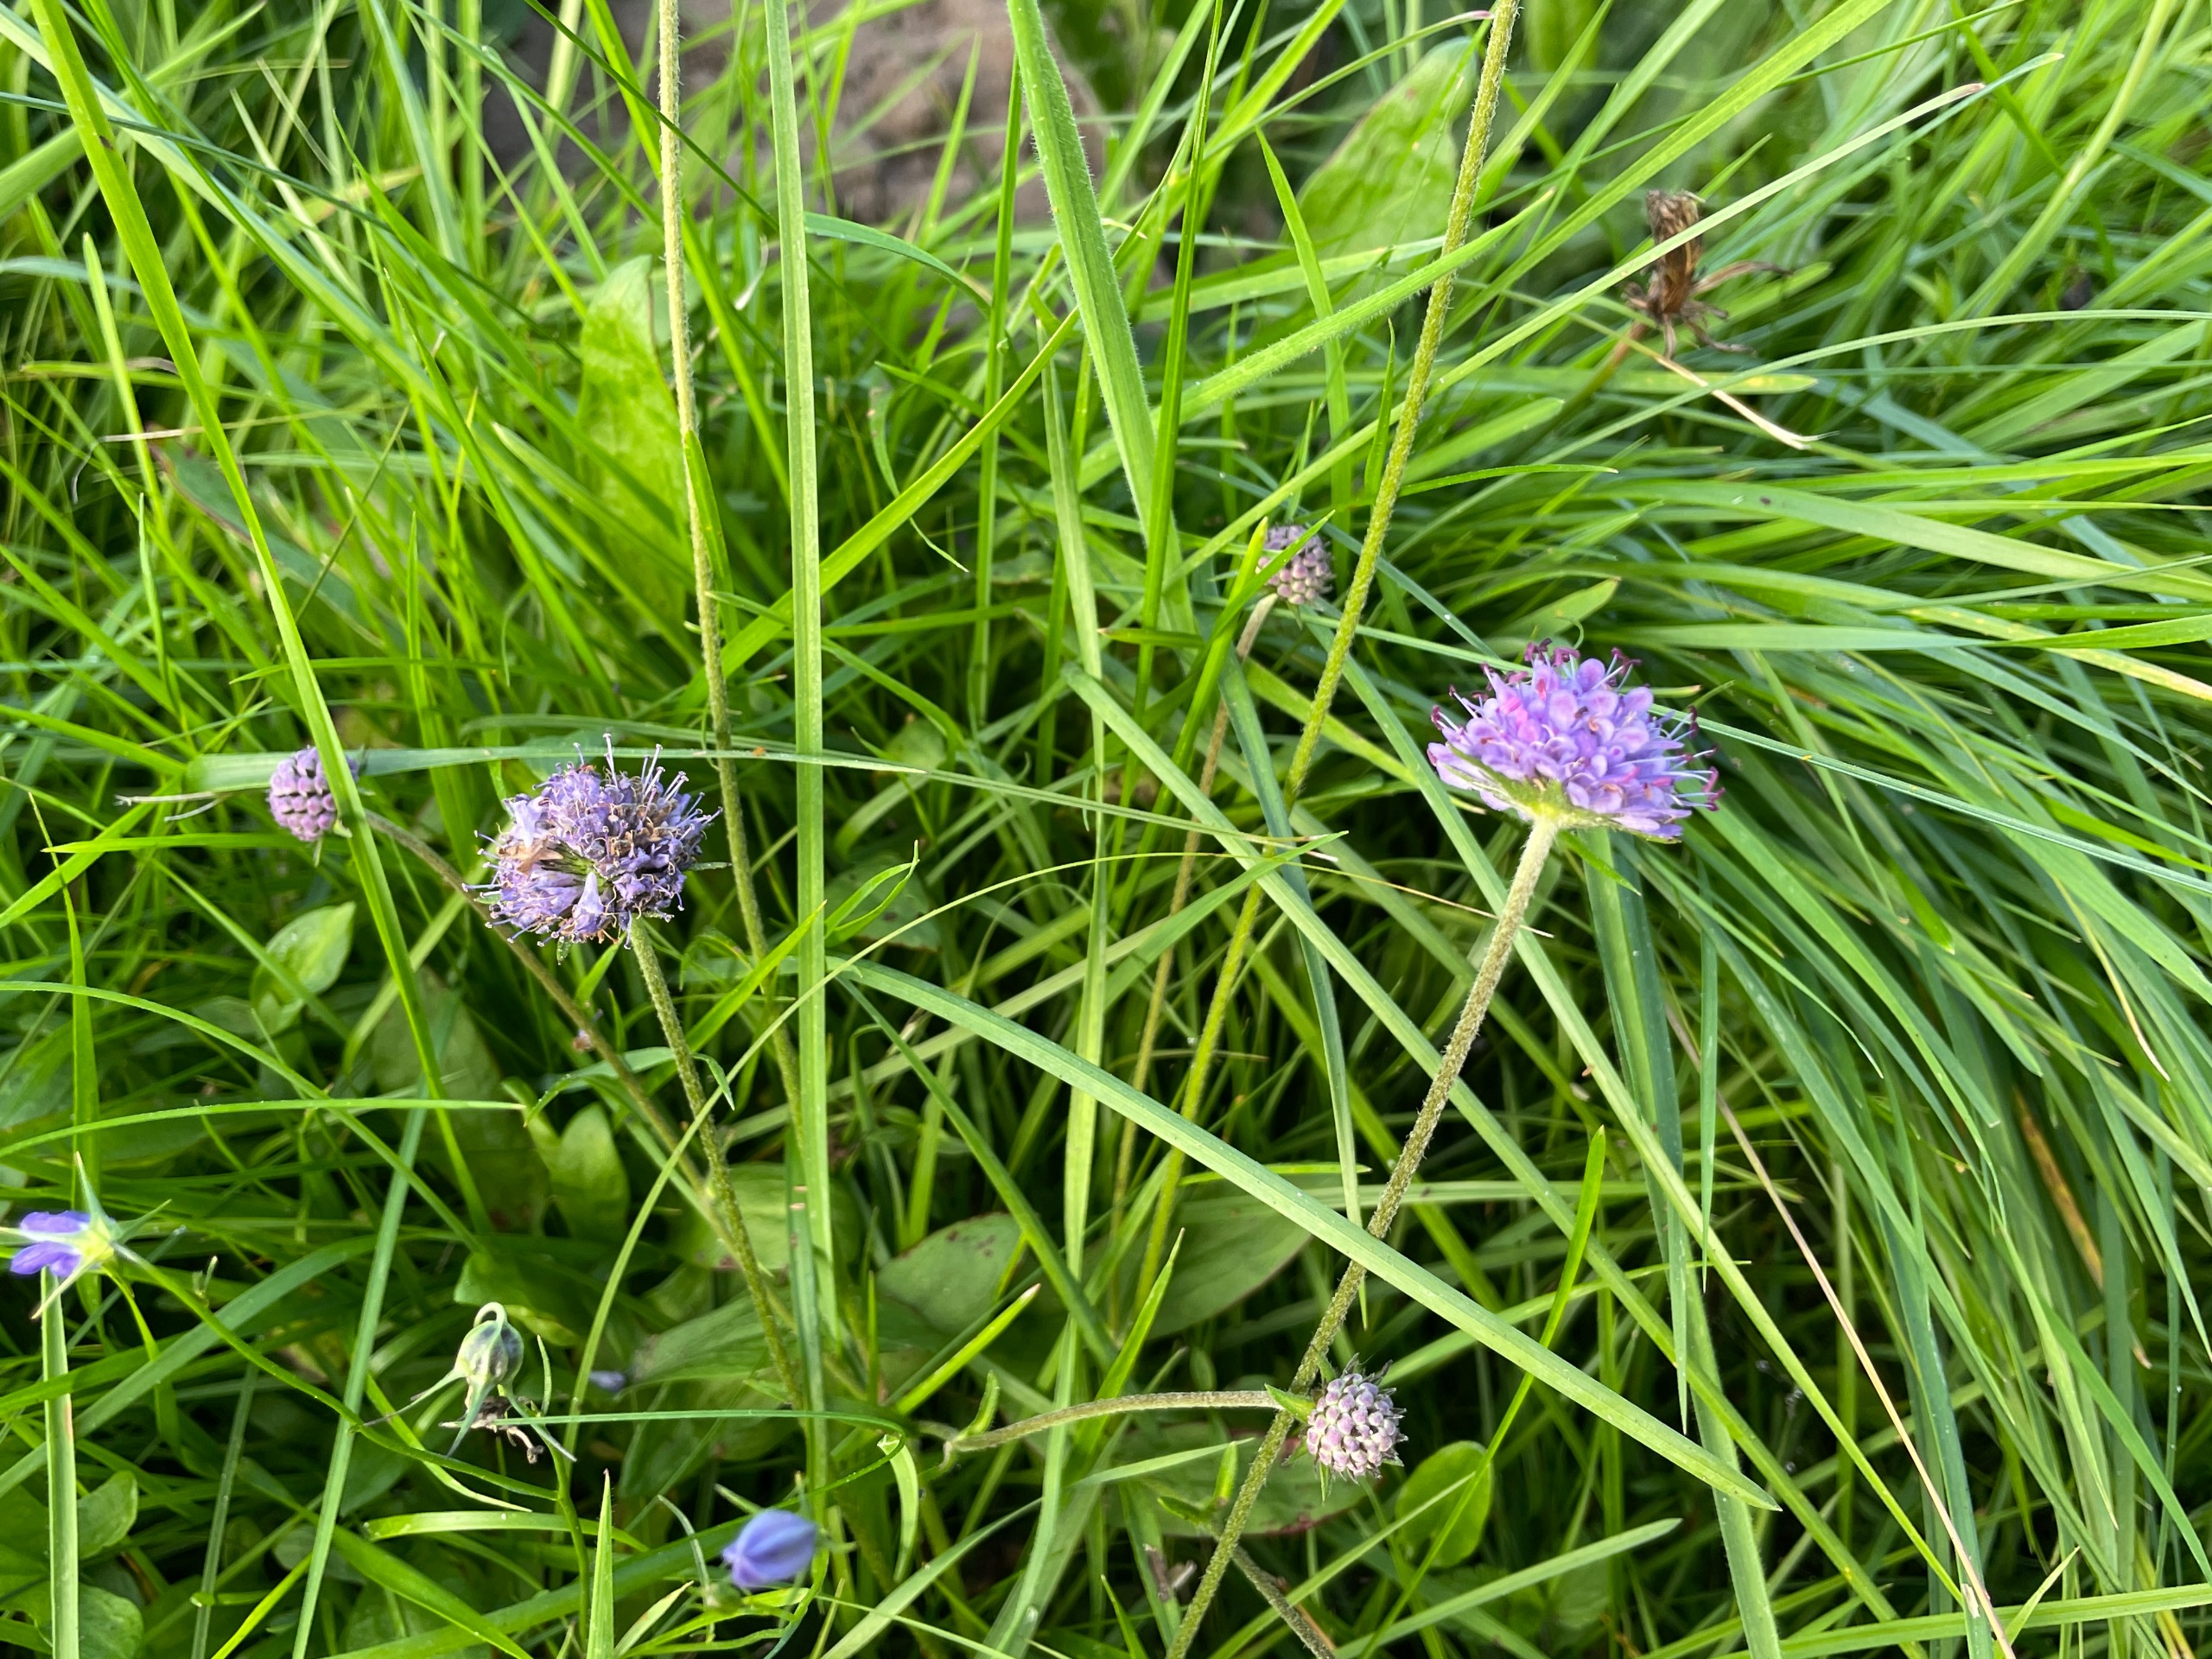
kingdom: Plantae
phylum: Tracheophyta
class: Magnoliopsida
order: Dipsacales
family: Caprifoliaceae
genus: Succisa
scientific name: Succisa pratensis
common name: Djævelsbid
